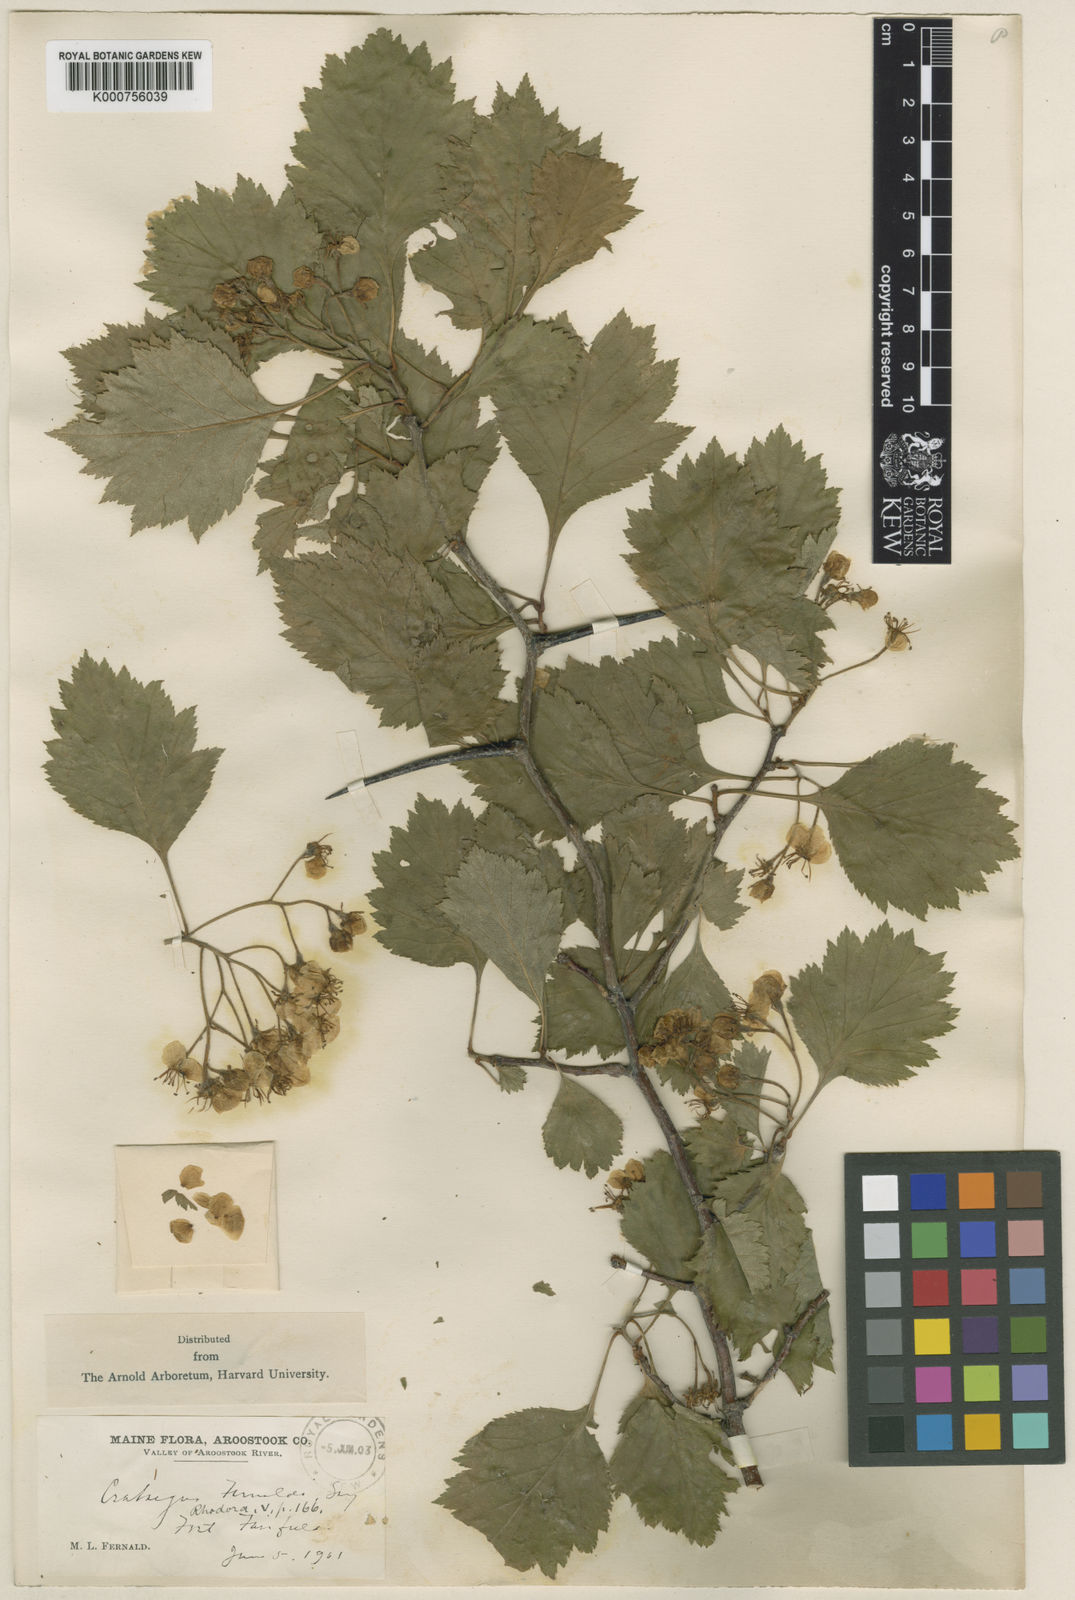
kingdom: Plantae
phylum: Tracheophyta
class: Magnoliopsida
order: Rosales
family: Rosaceae
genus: Crataegus
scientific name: Crataegus chrysocarpa
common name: Fire-berry hawthorn
